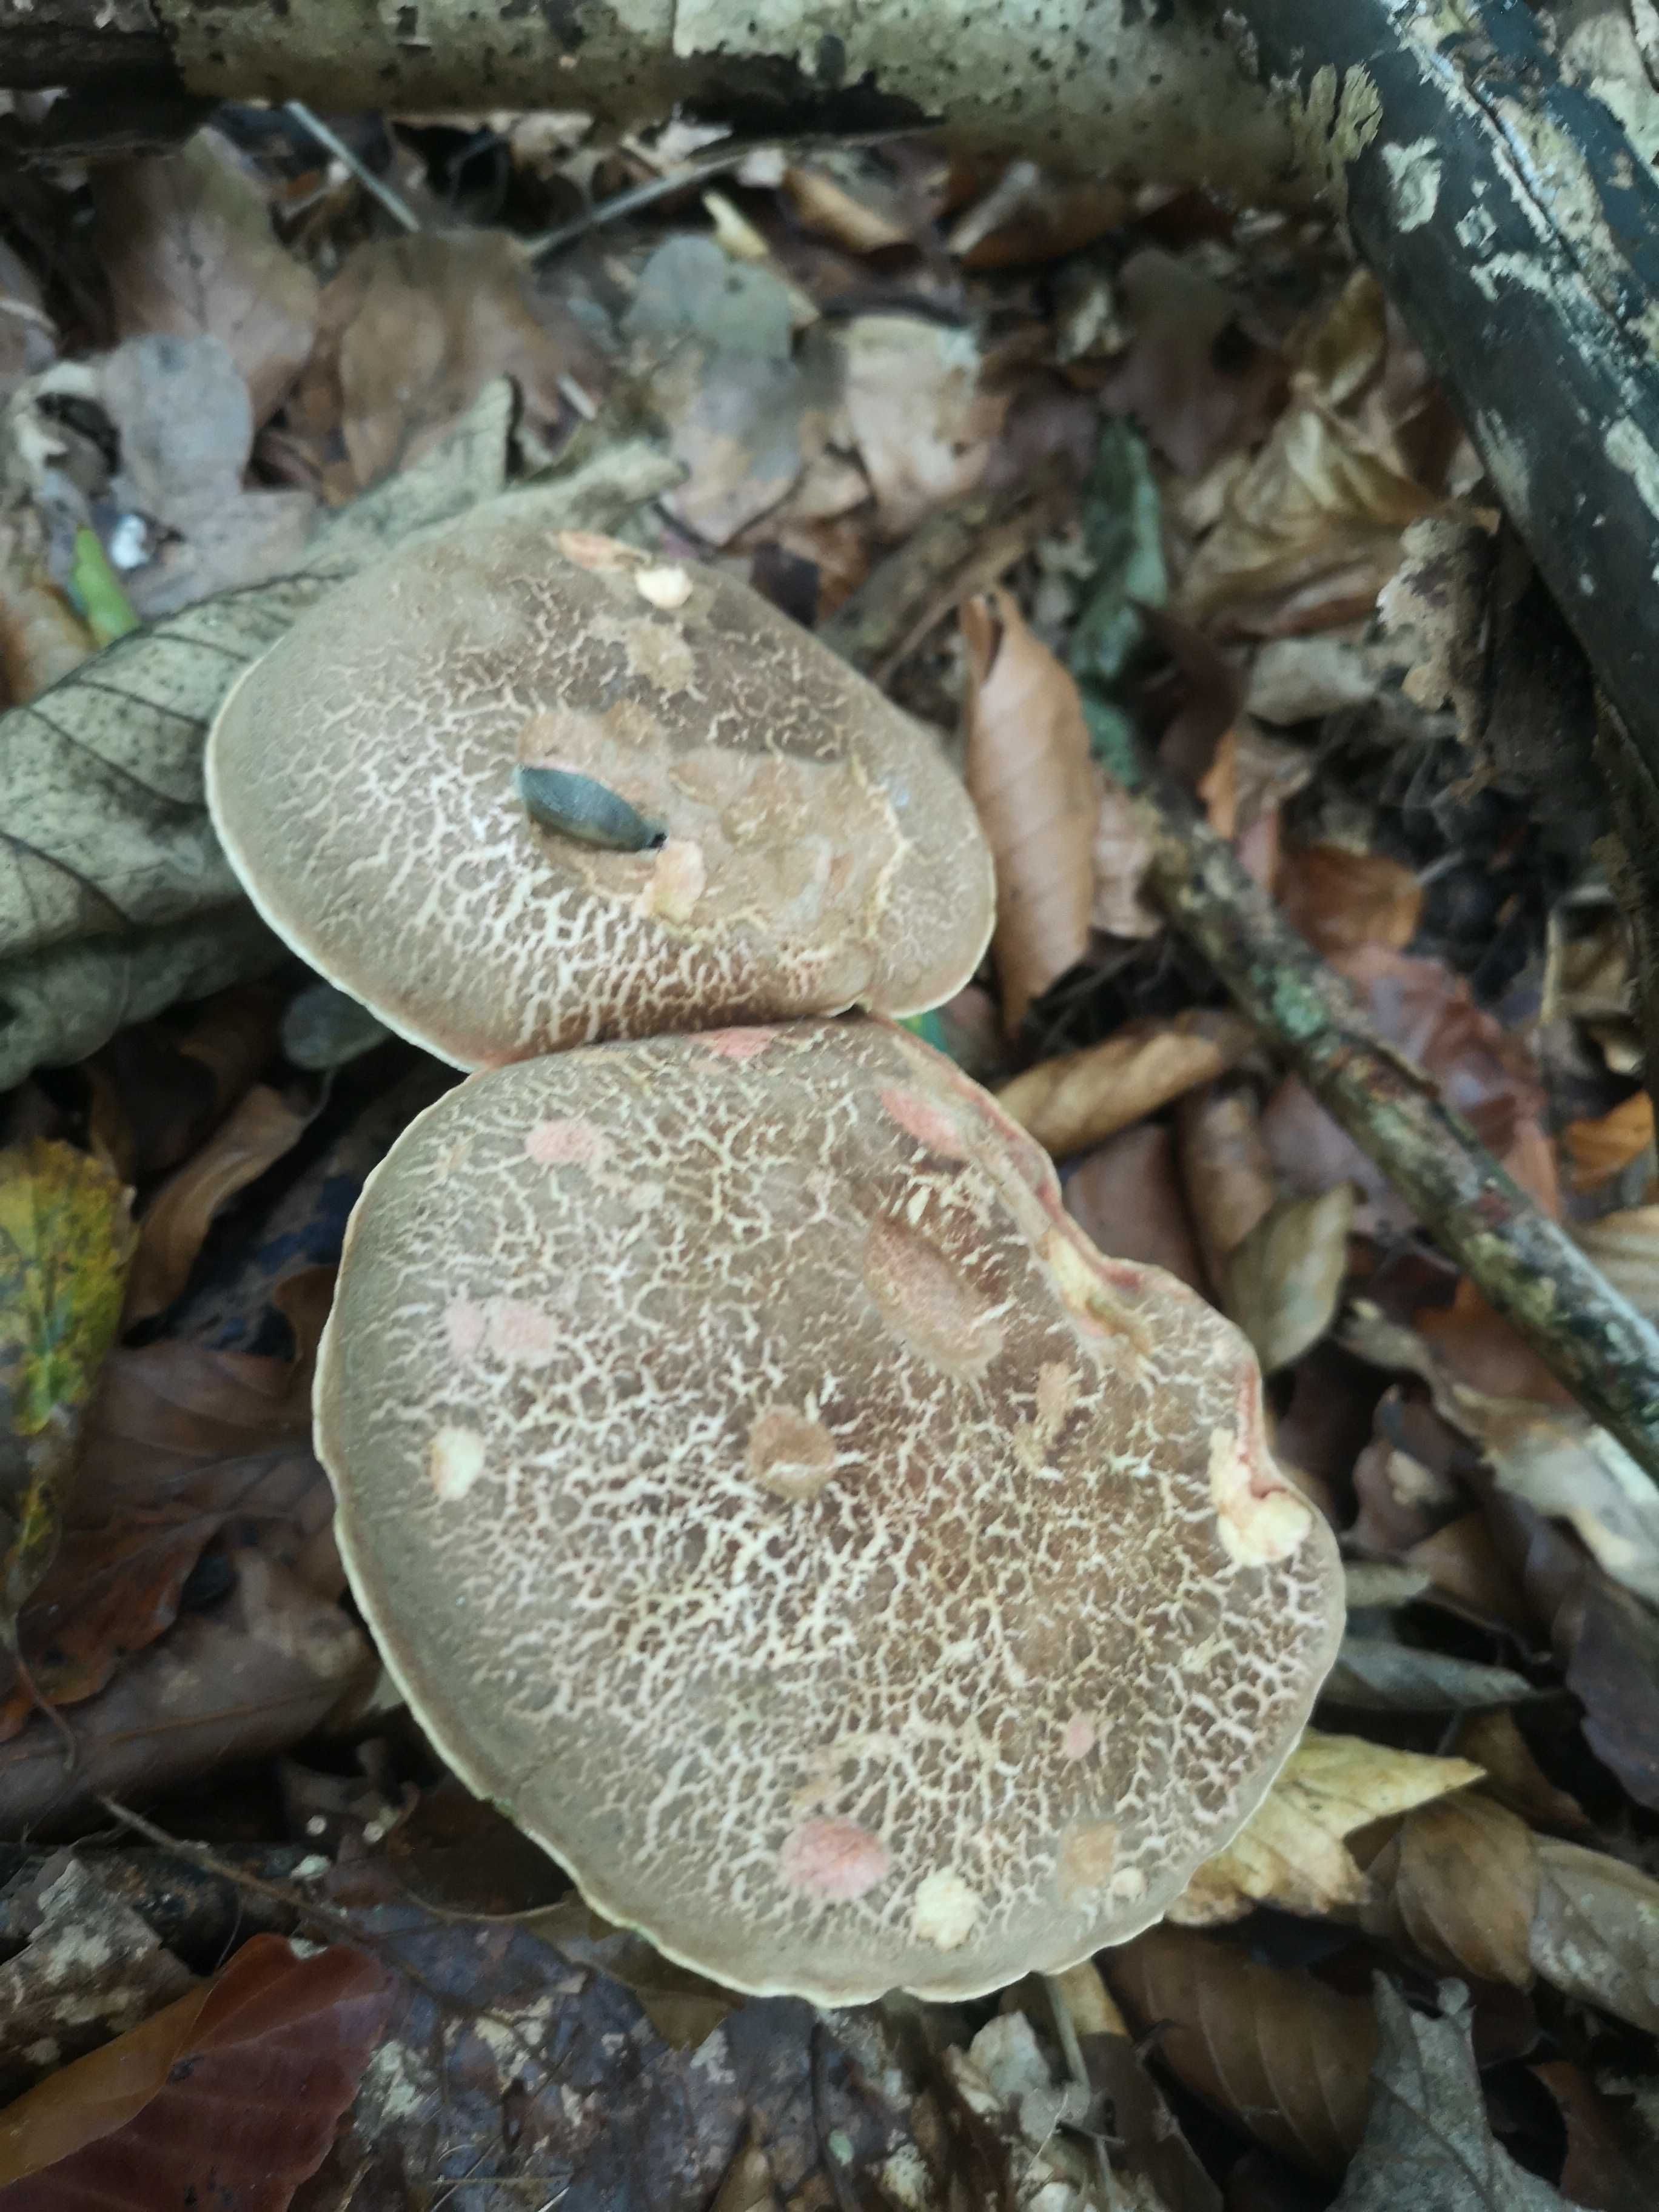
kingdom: Fungi
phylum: Basidiomycota
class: Agaricomycetes
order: Boletales
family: Boletaceae
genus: Xerocomellus
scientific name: Xerocomellus cisalpinus
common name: finsprukken rørhat
